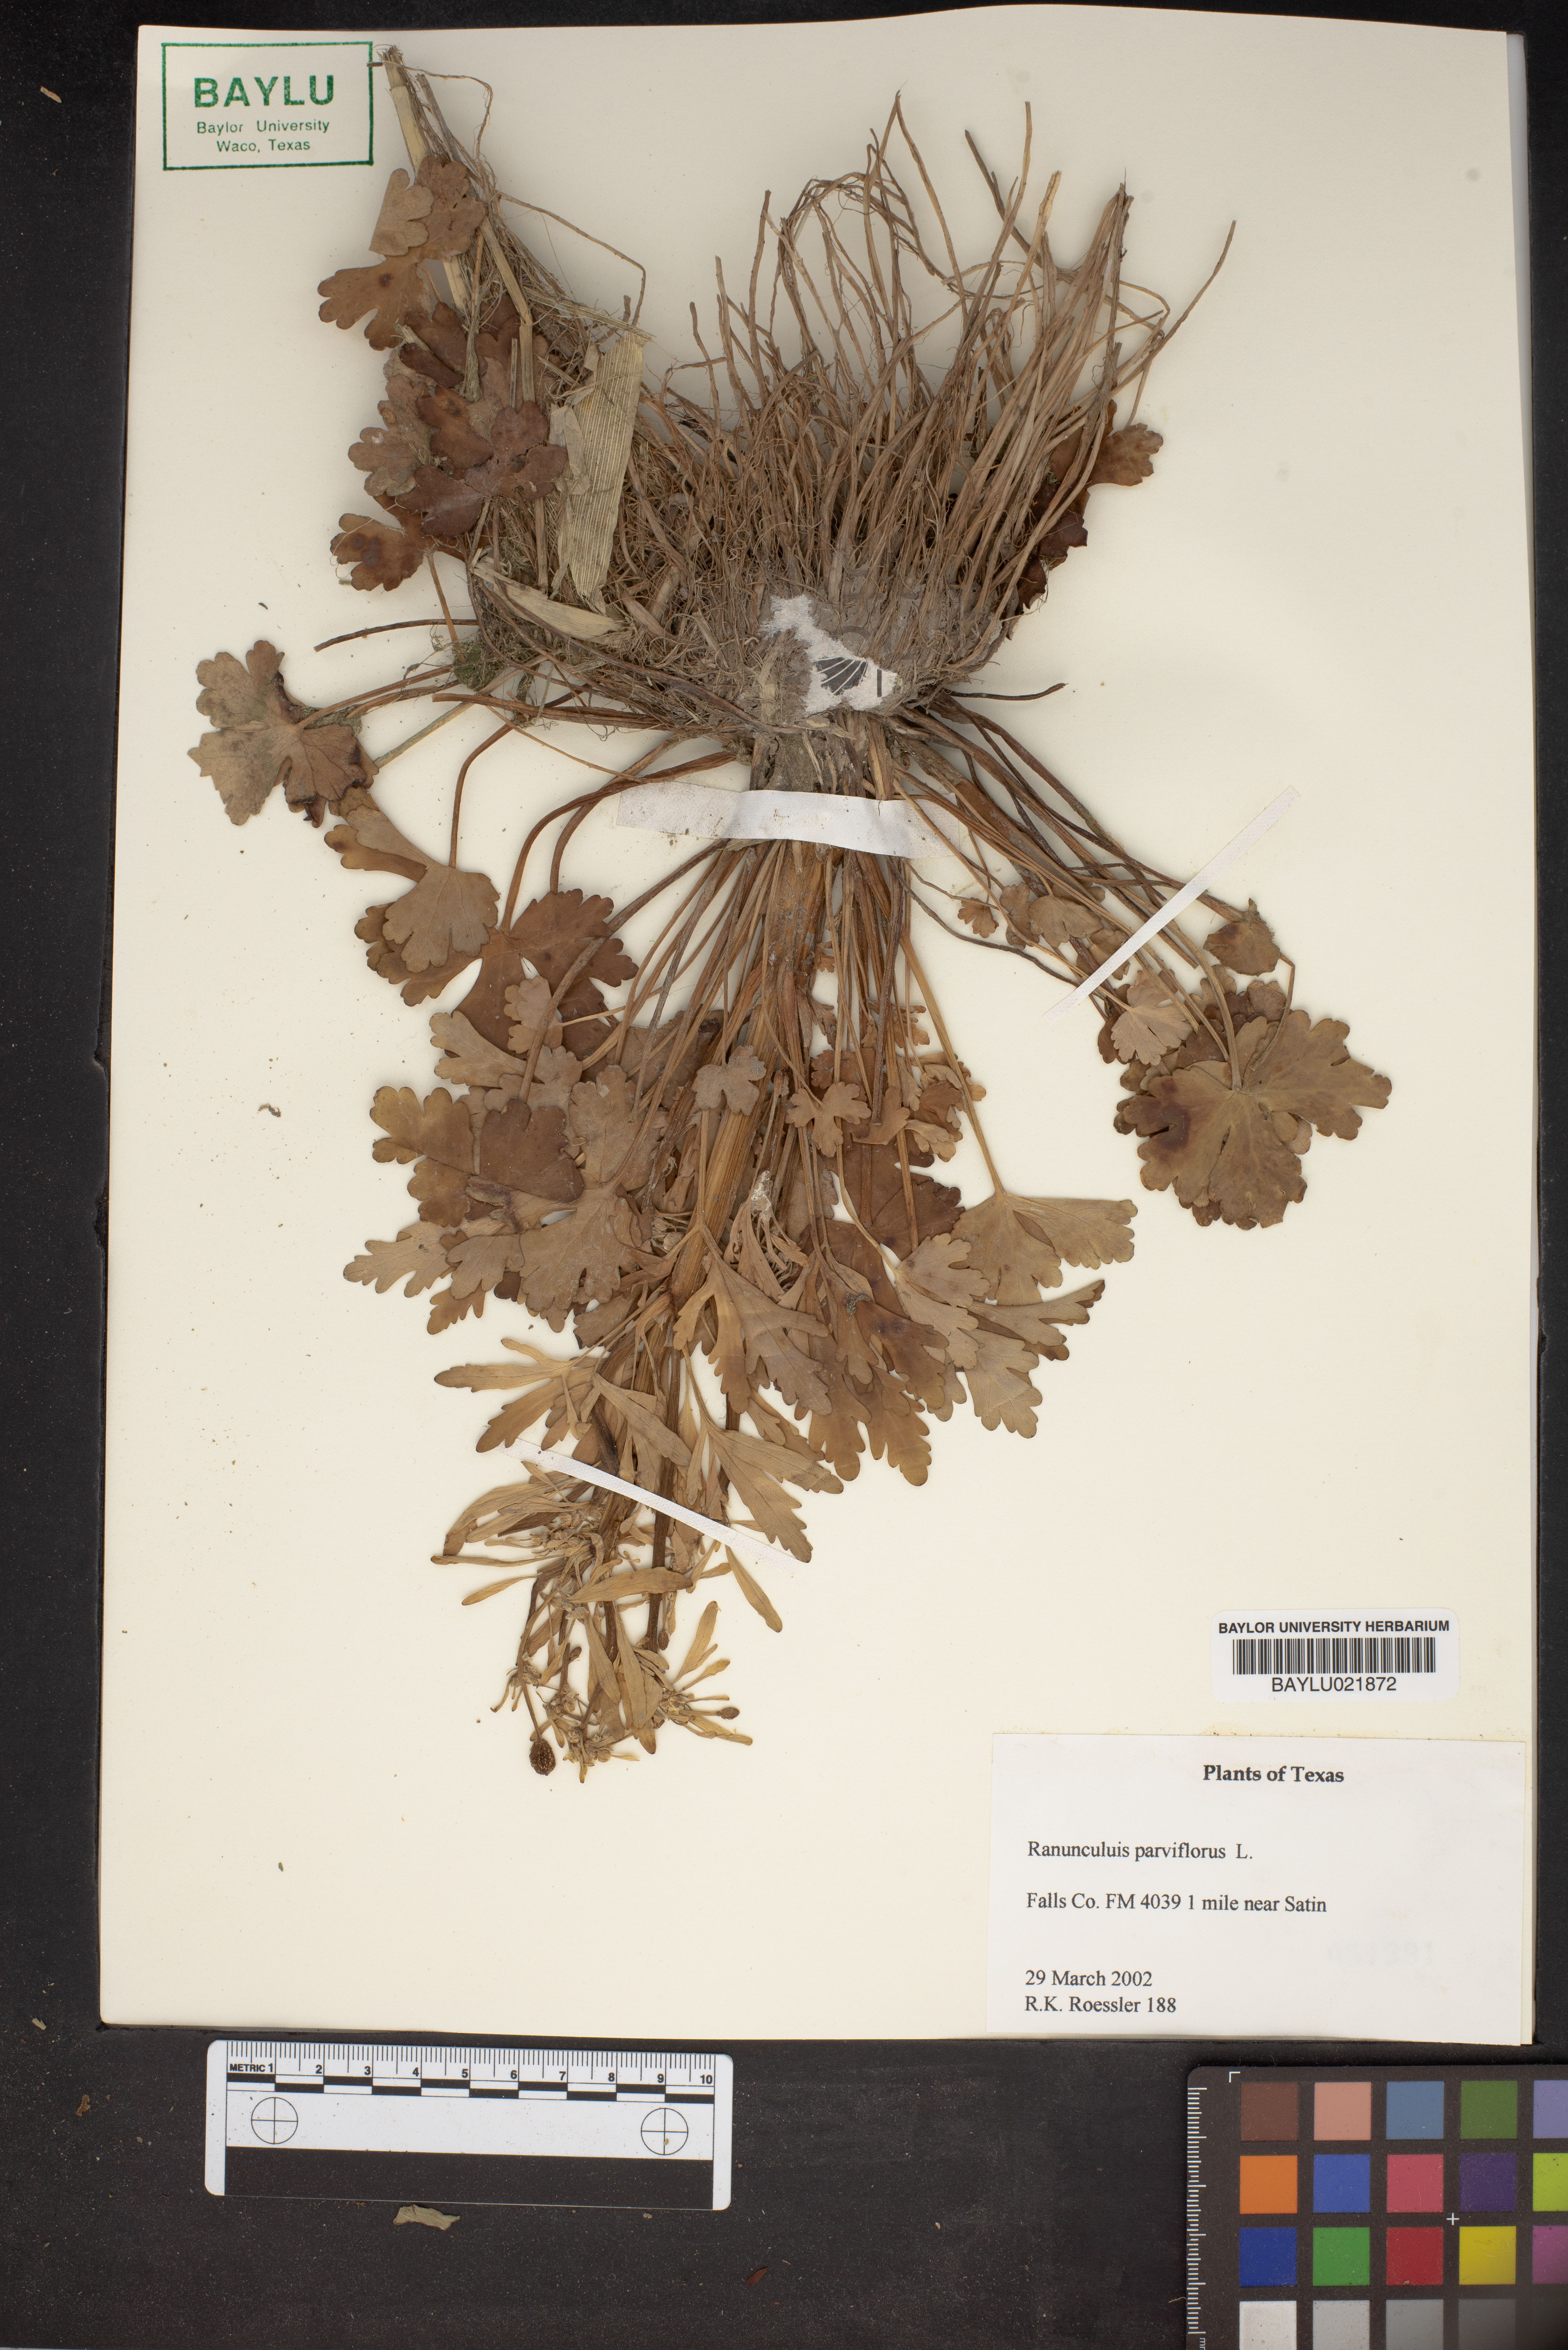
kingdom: Plantae
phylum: Tracheophyta
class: Magnoliopsida
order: Ranunculales
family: Ranunculaceae
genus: Ranunculus
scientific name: Ranunculus parviflorus
